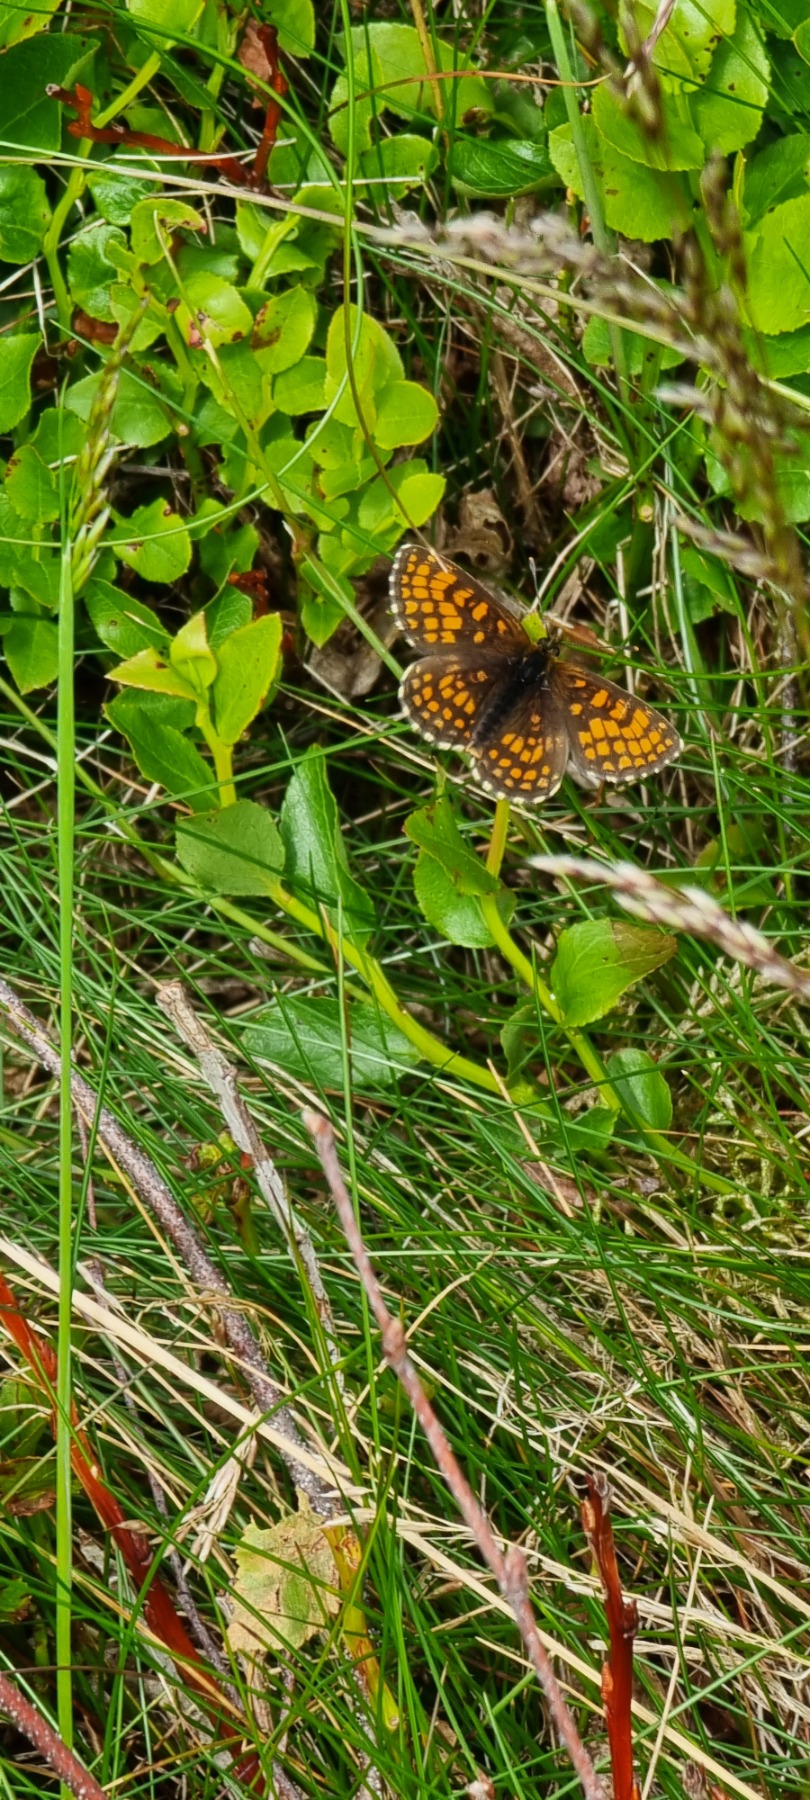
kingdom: Animalia
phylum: Arthropoda
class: Insecta
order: Lepidoptera
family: Nymphalidae
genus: Mellicta
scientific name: Mellicta athalia
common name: Brun pletvinge
